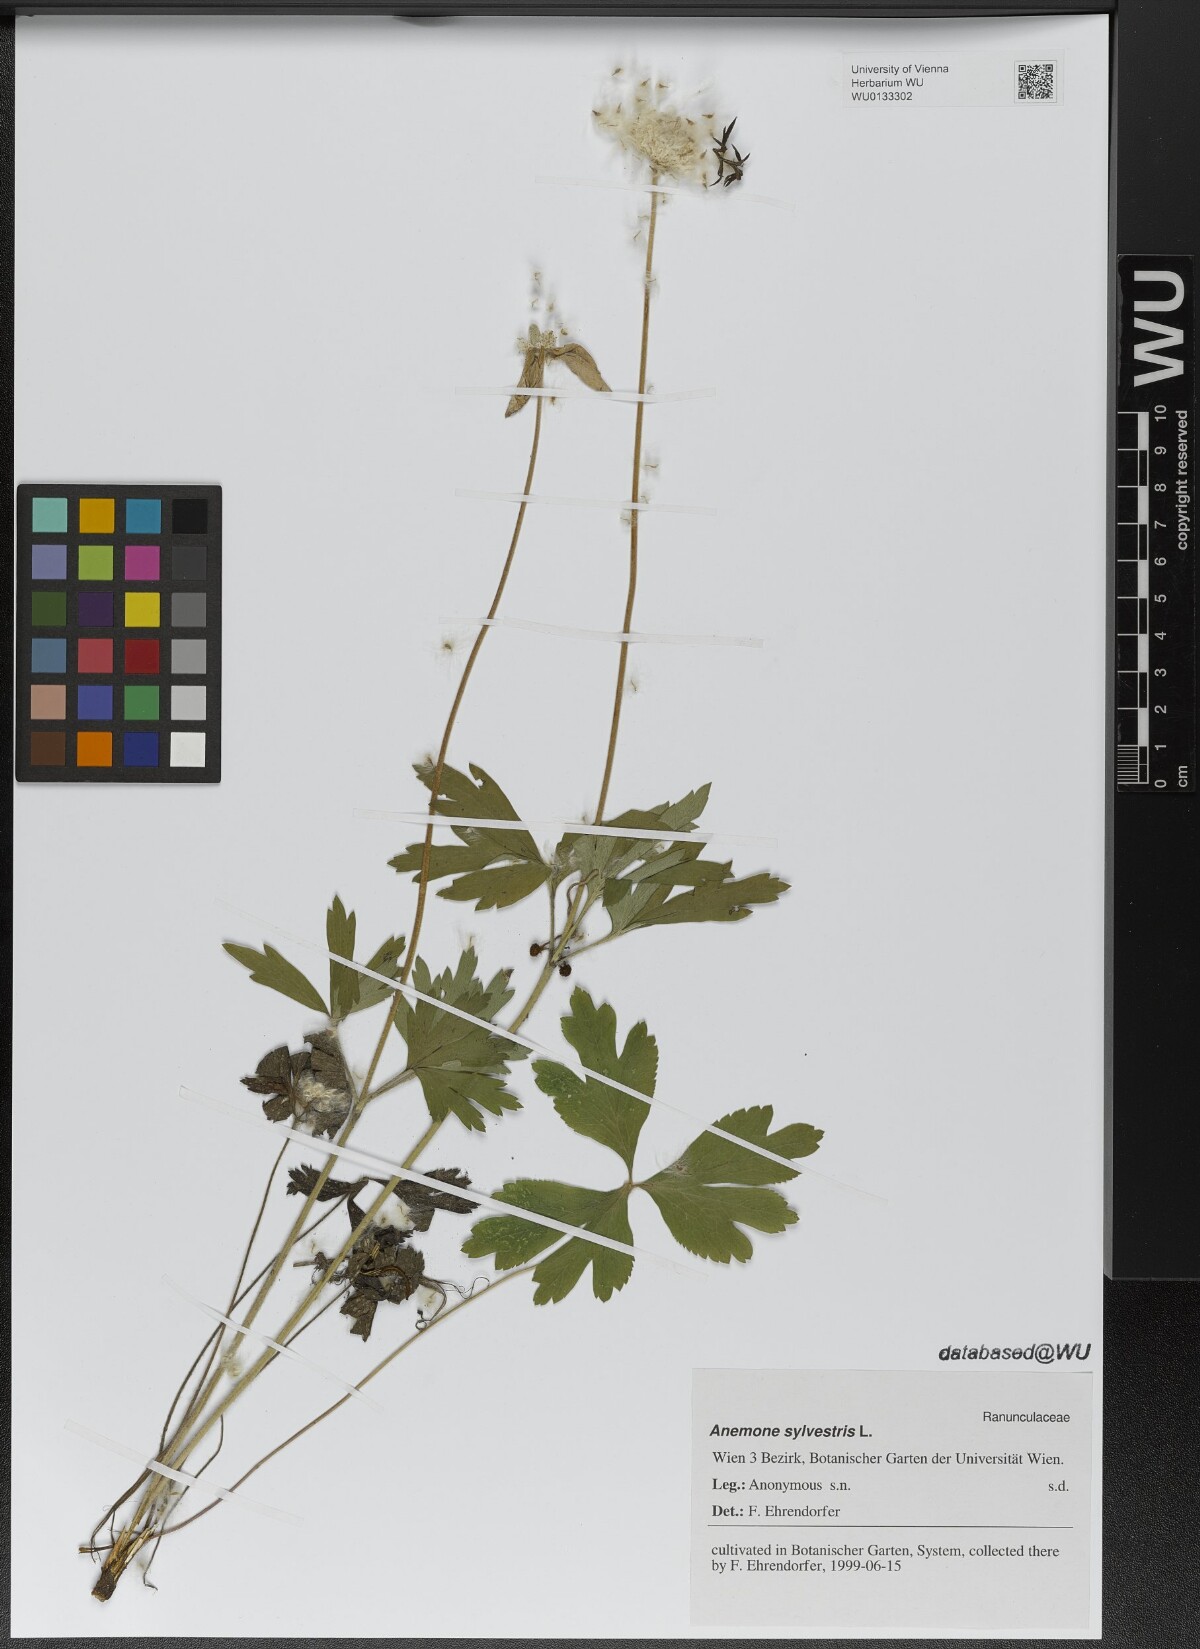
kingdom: Plantae
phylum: Tracheophyta
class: Magnoliopsida
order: Ranunculales
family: Ranunculaceae
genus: Anemone
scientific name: Anemone sylvestris
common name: Snowdrop anemone
